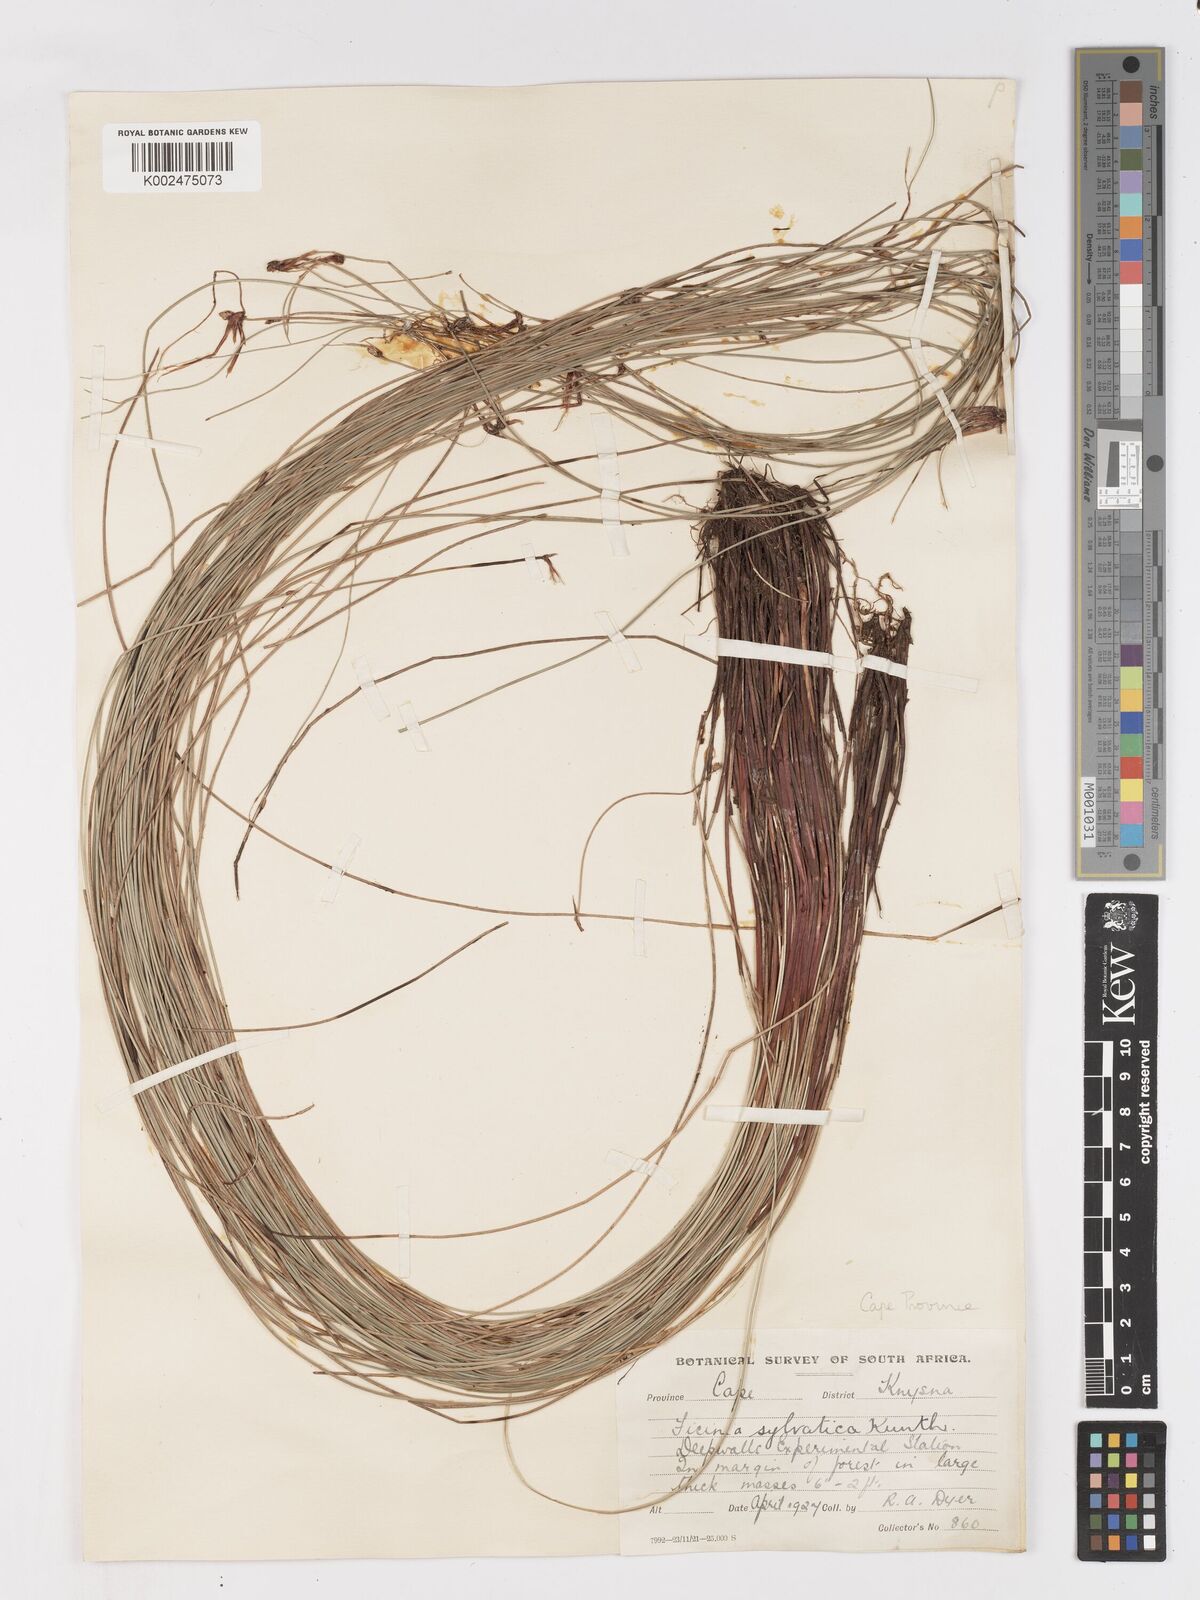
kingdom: Plantae
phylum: Tracheophyta
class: Liliopsida
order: Poales
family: Cyperaceae
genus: Ficinia
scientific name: Ficinia sylvatica
